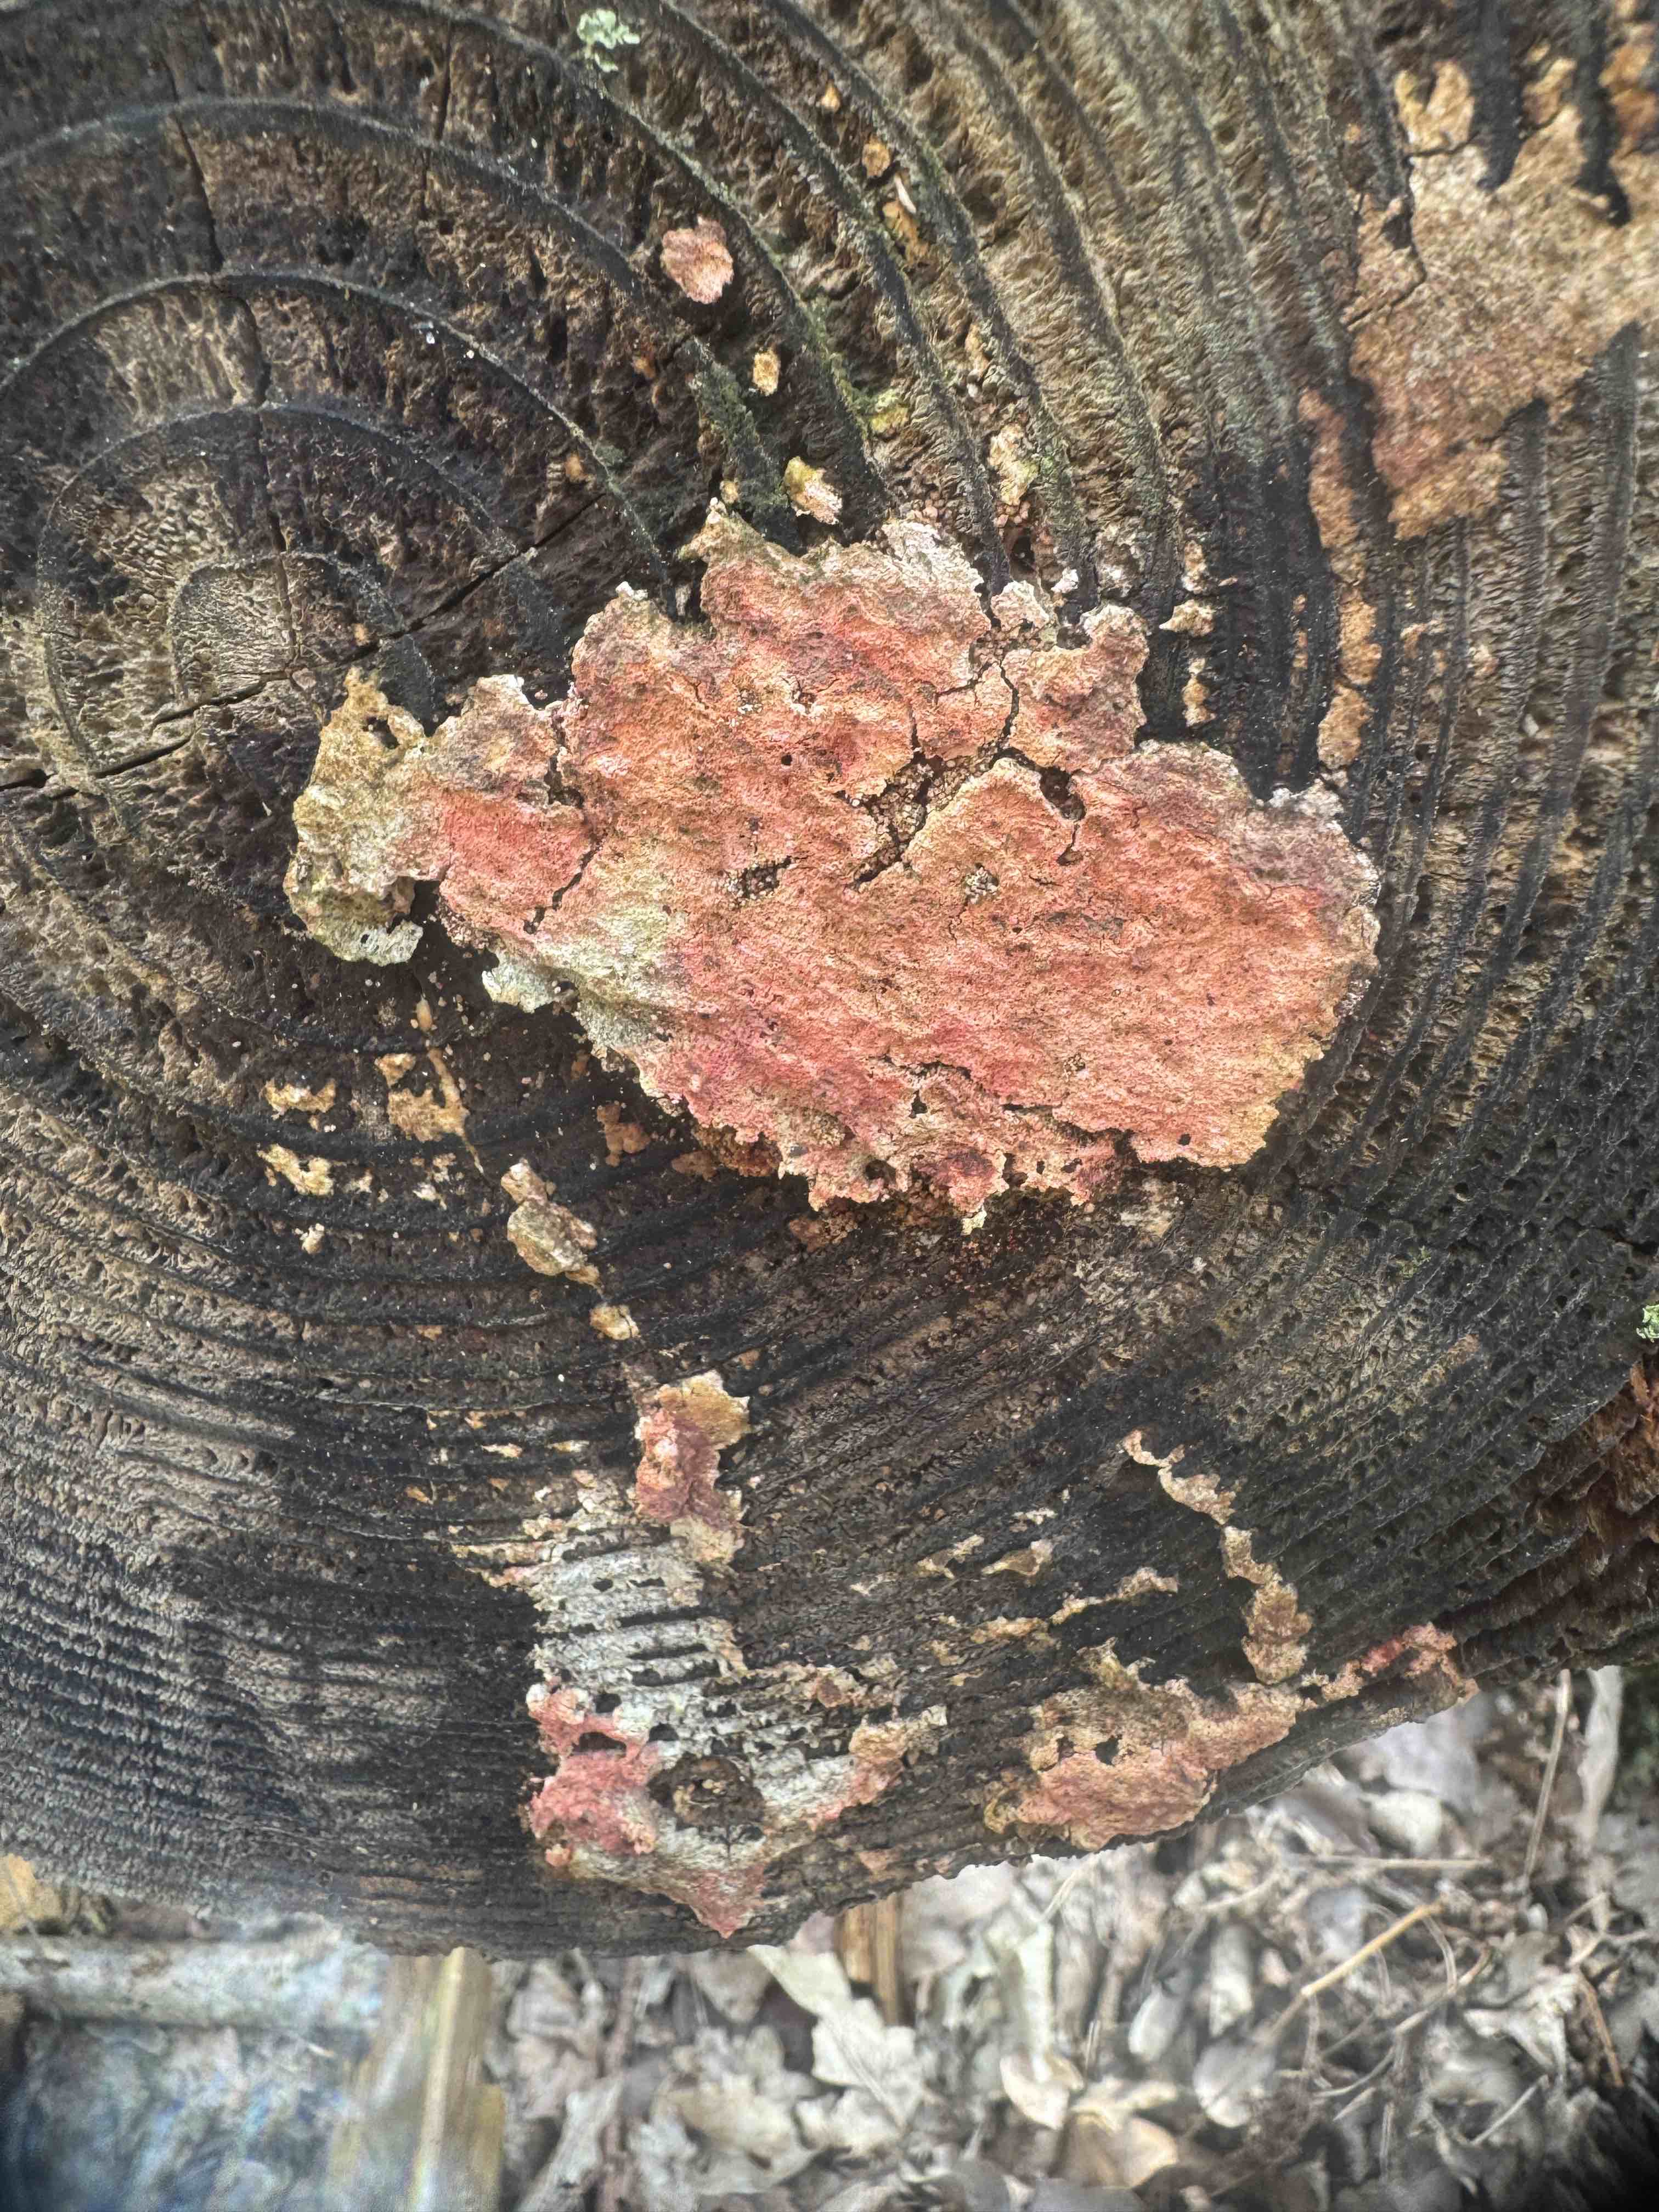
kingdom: Fungi
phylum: Basidiomycota
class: Agaricomycetes
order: Russulales
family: Peniophoraceae
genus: Peniophora
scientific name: Peniophora incarnata
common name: laksefarvet voksskind
